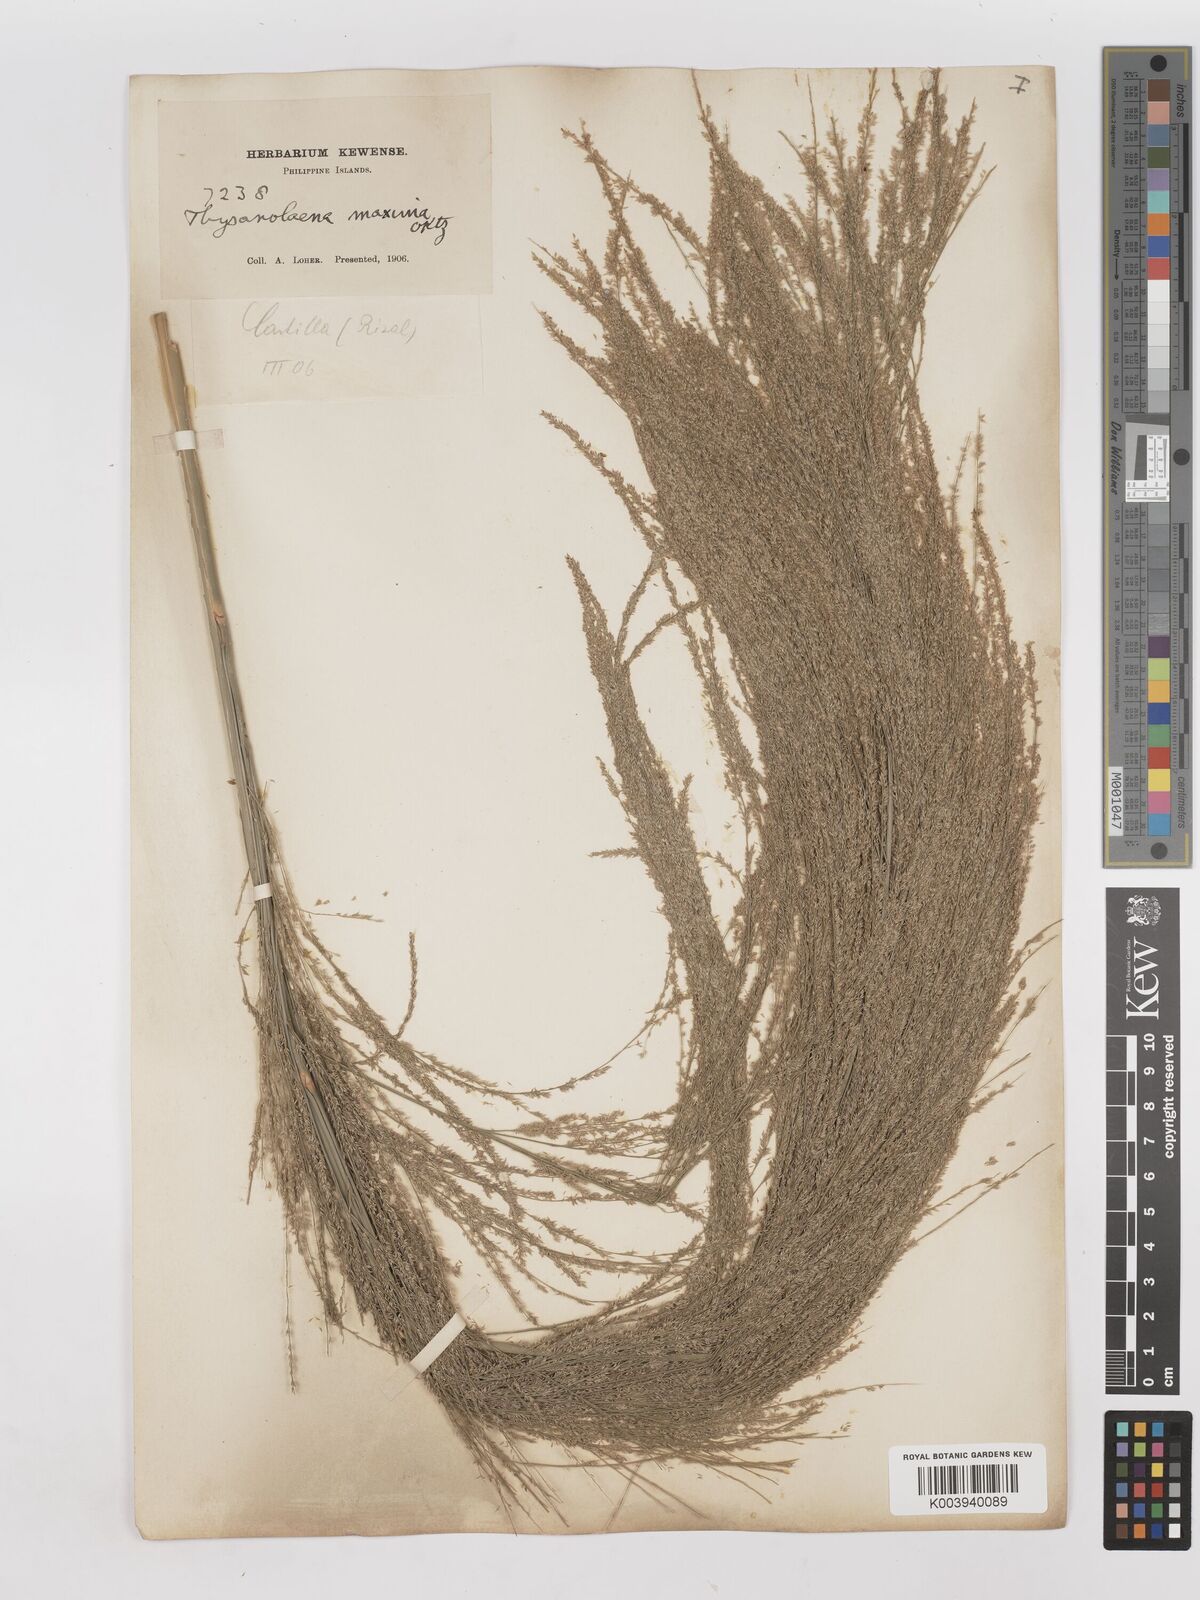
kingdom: Plantae
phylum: Tracheophyta
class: Liliopsida
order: Poales
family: Poaceae
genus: Thysanolaena
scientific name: Thysanolaena latifolia
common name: Tiger grass
